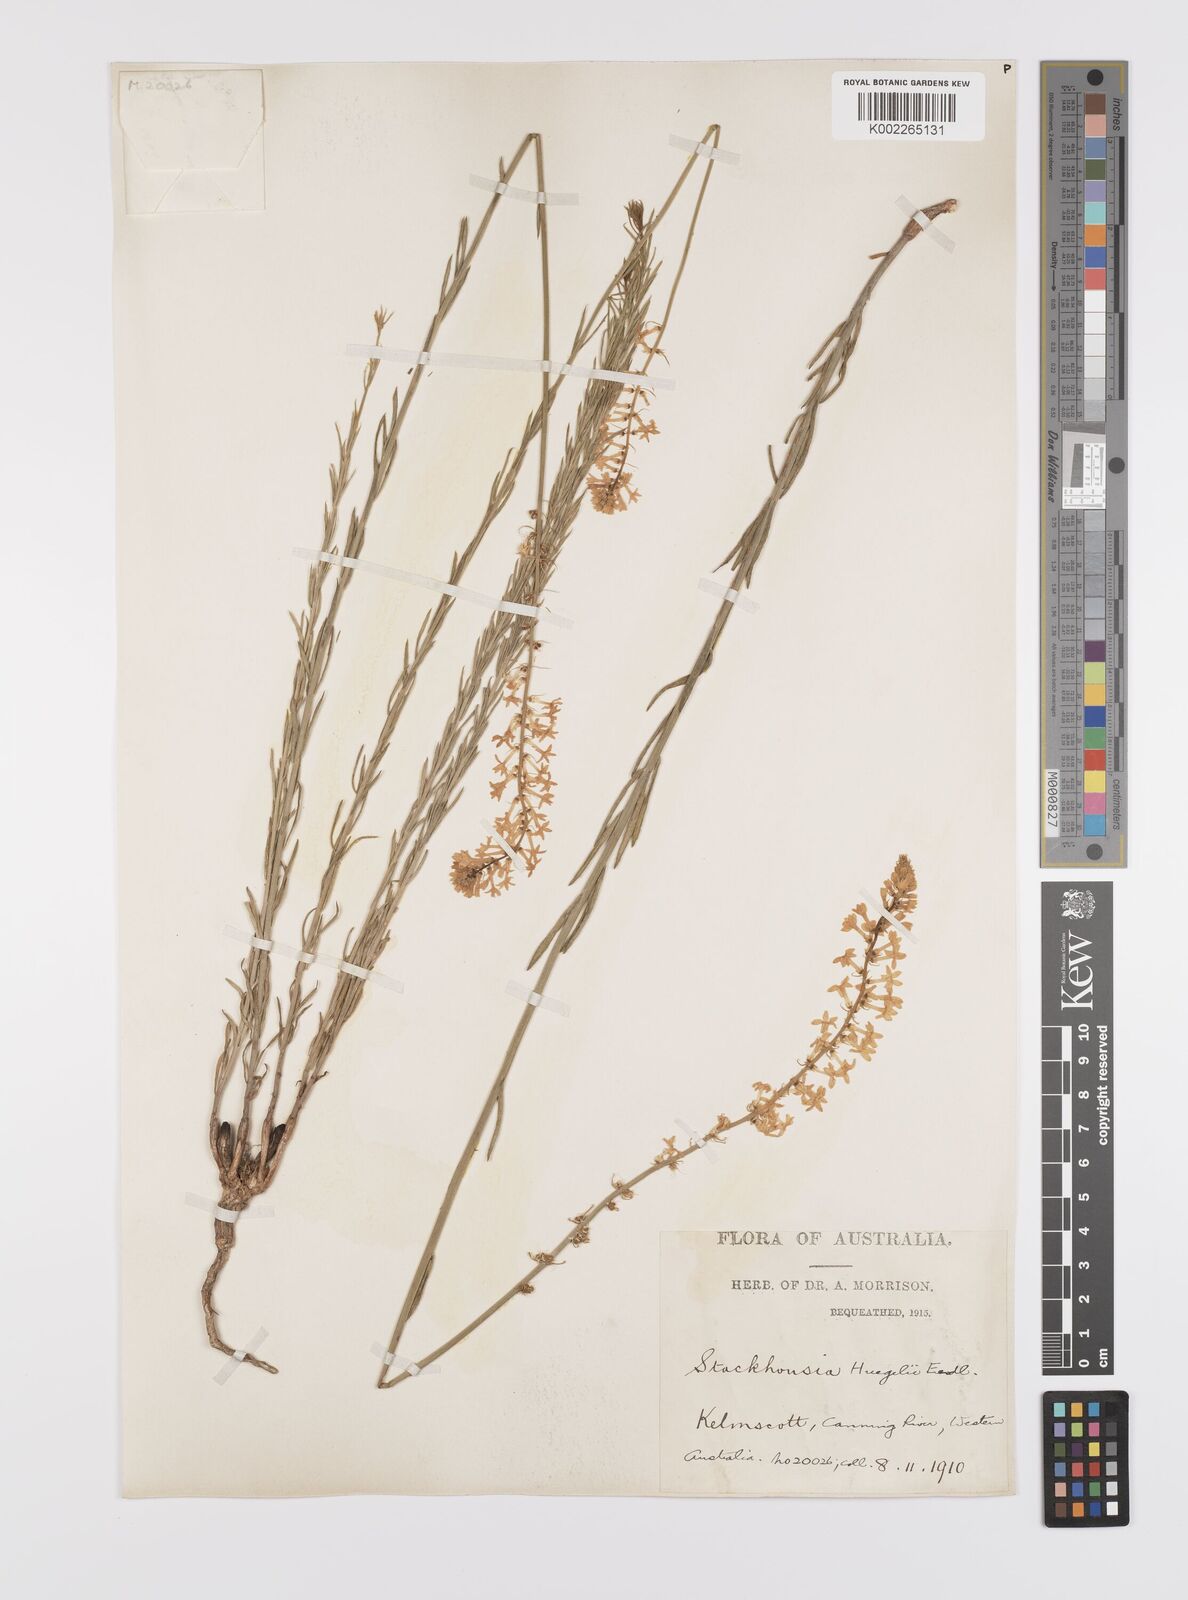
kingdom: Plantae
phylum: Tracheophyta
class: Magnoliopsida
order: Celastrales
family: Celastraceae
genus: Stackhousia
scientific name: Stackhousia monogyna
